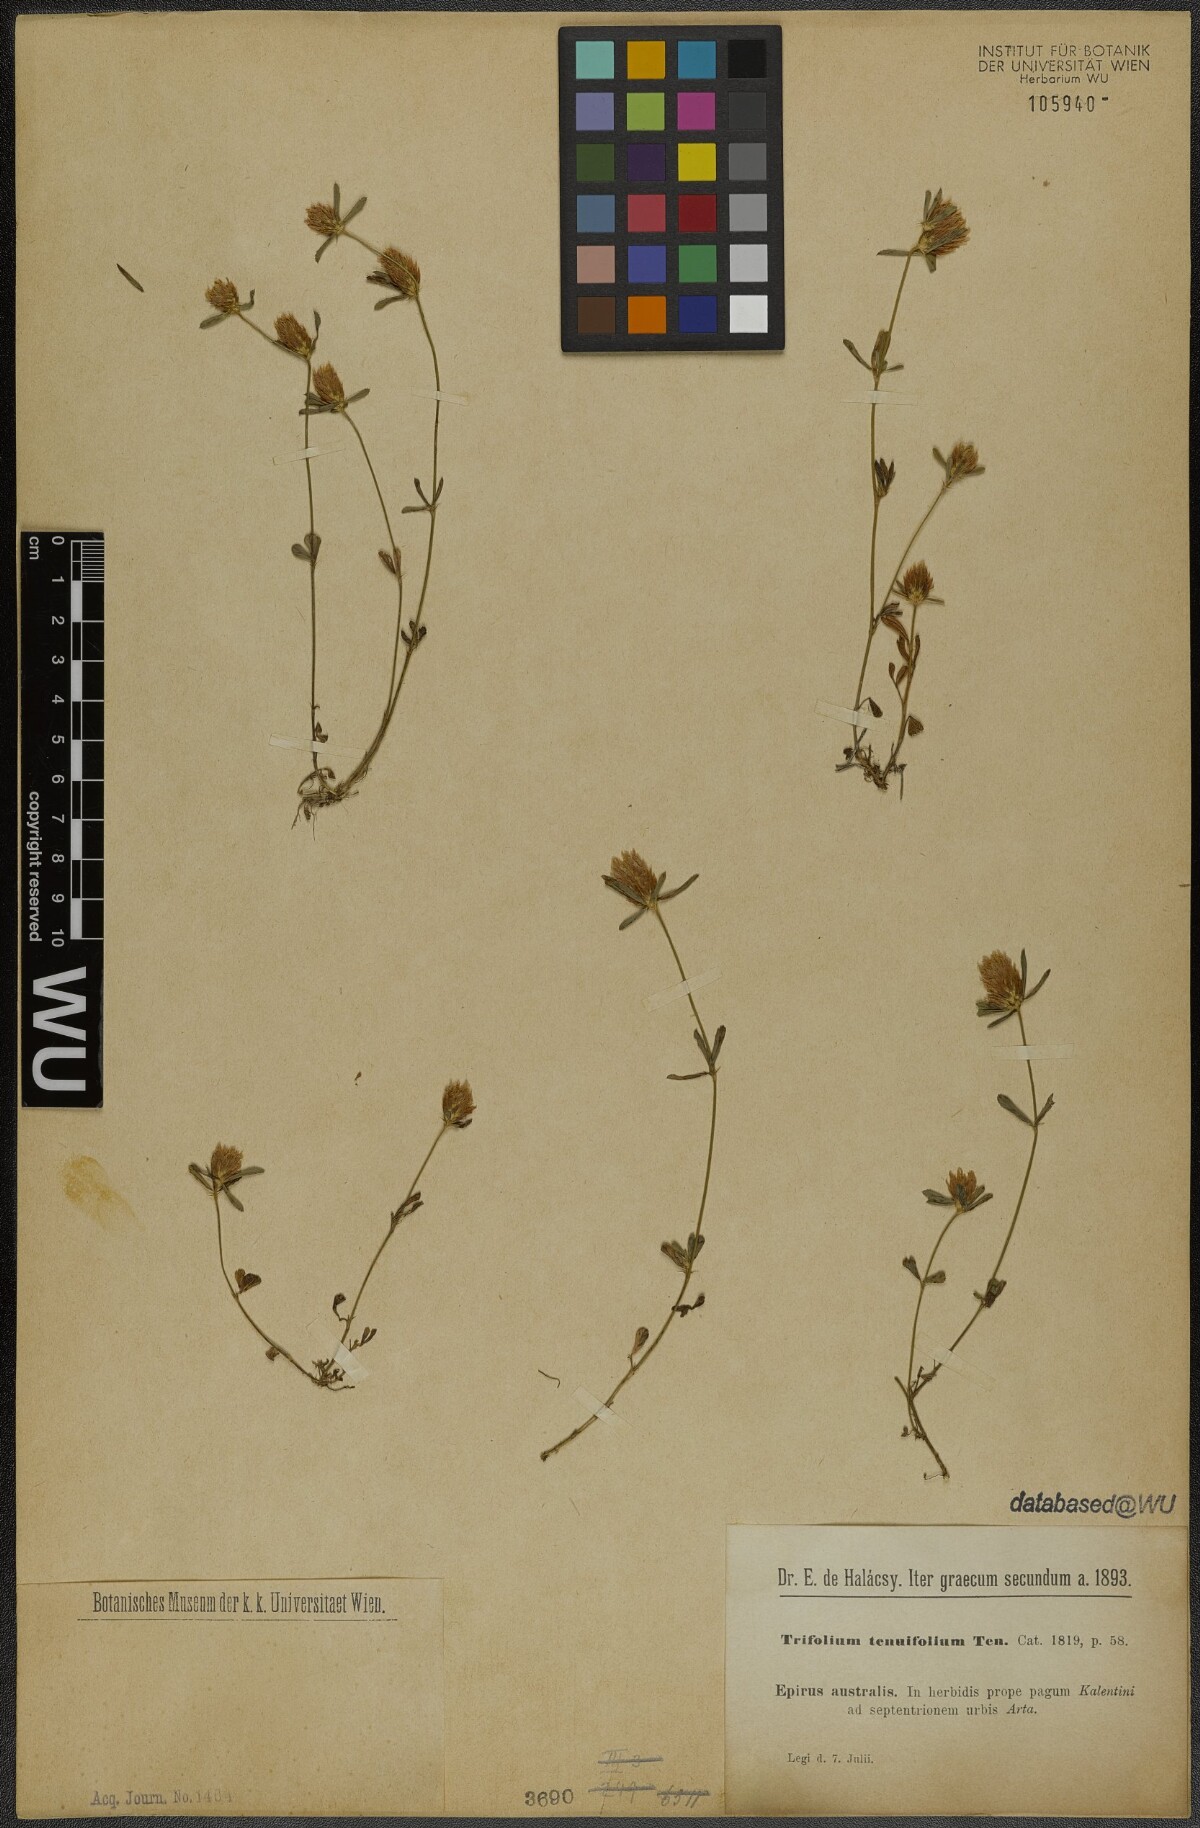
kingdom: Plantae
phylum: Tracheophyta
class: Magnoliopsida
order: Fabales
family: Fabaceae
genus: Trifolium
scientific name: Trifolium tenuifolium
